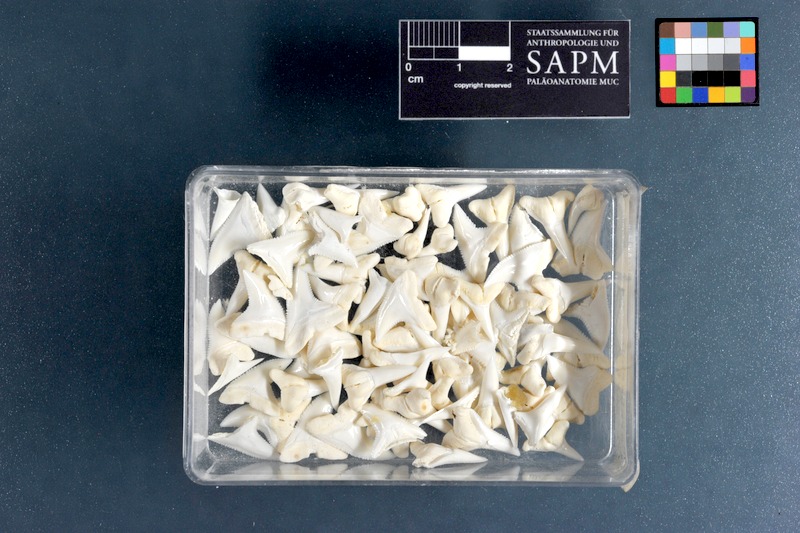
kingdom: Animalia
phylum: Chordata
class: Elasmobranchii
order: Lamniformes
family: Lamnidae
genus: Carcharodon
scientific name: Carcharodon carcharias
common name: Great white shark
